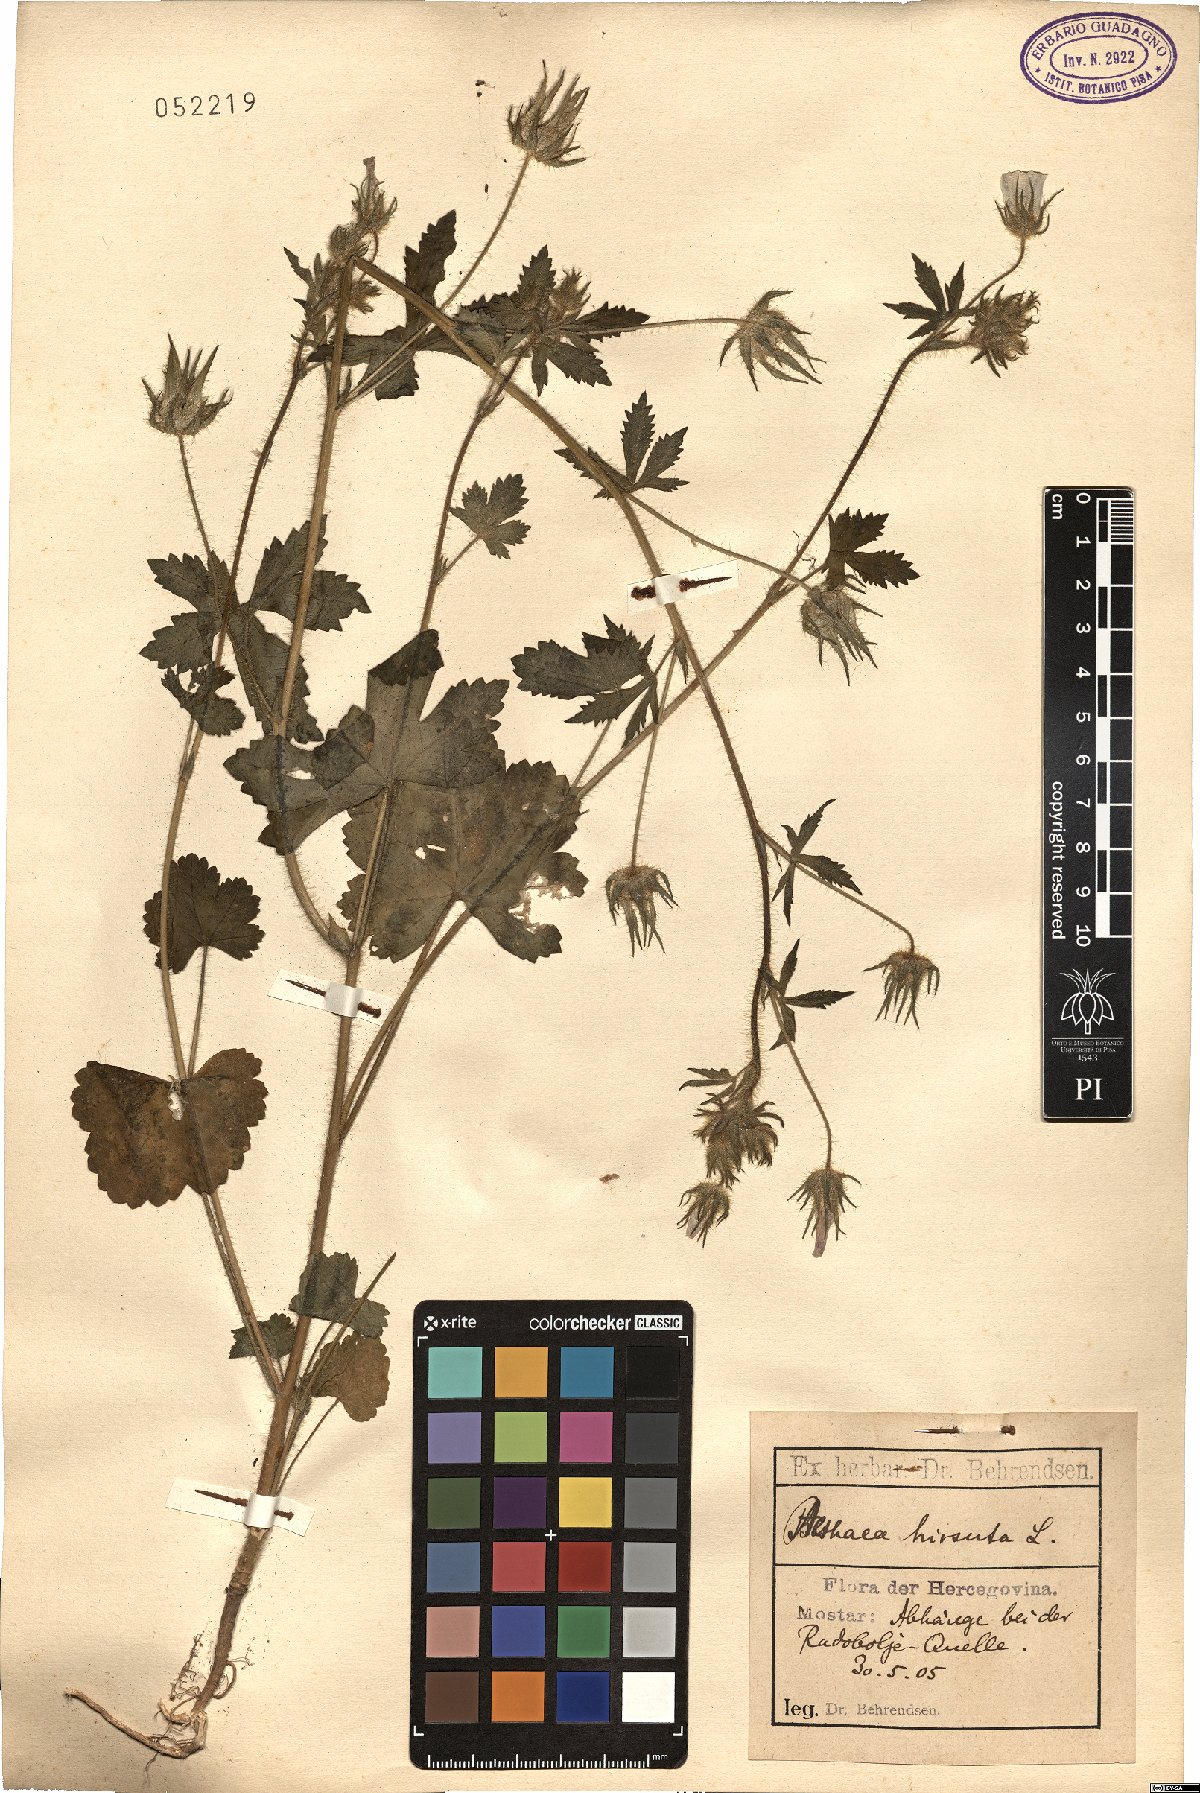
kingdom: Plantae
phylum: Tracheophyta
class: Magnoliopsida
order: Malvales
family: Malvaceae
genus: Althaea
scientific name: Althaea hirsuta
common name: Rough marsh-mallow
